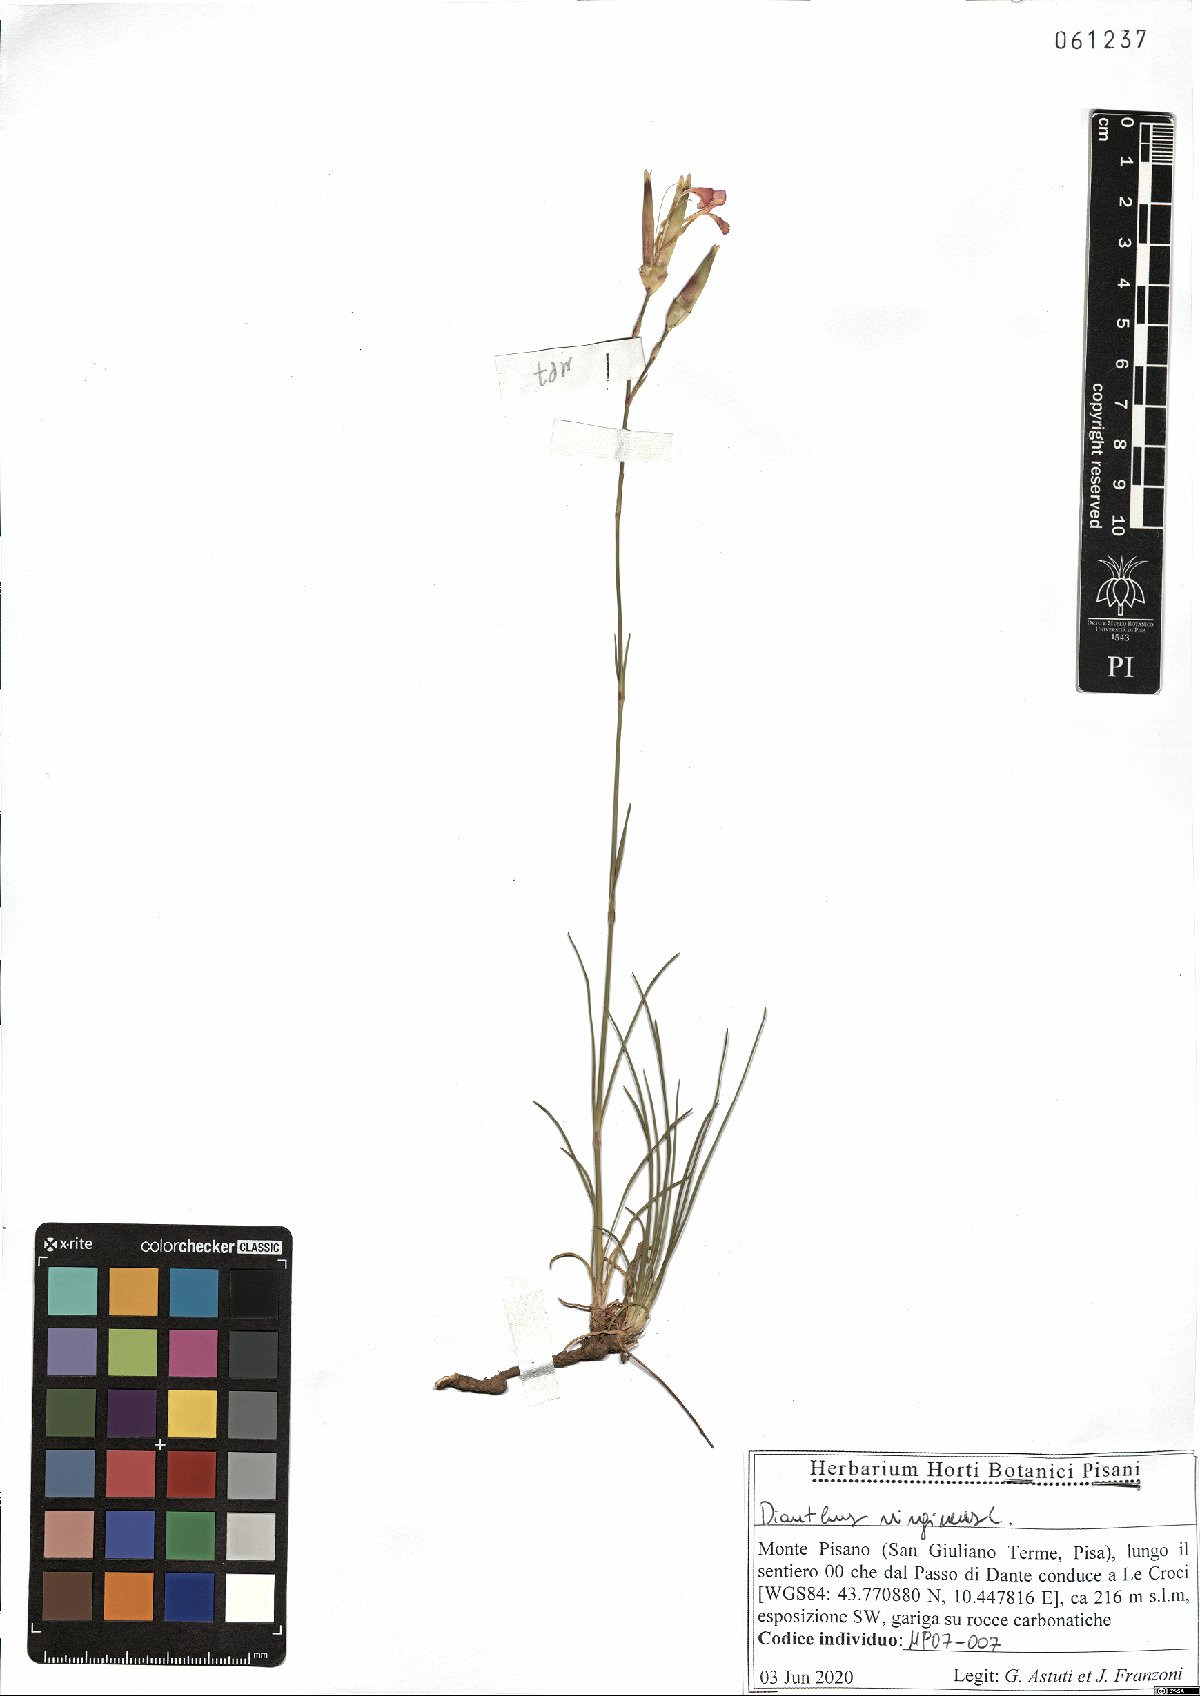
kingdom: Plantae
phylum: Tracheophyta
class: Magnoliopsida
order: Caryophyllales
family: Caryophyllaceae
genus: Dianthus
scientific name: Dianthus virgineus
